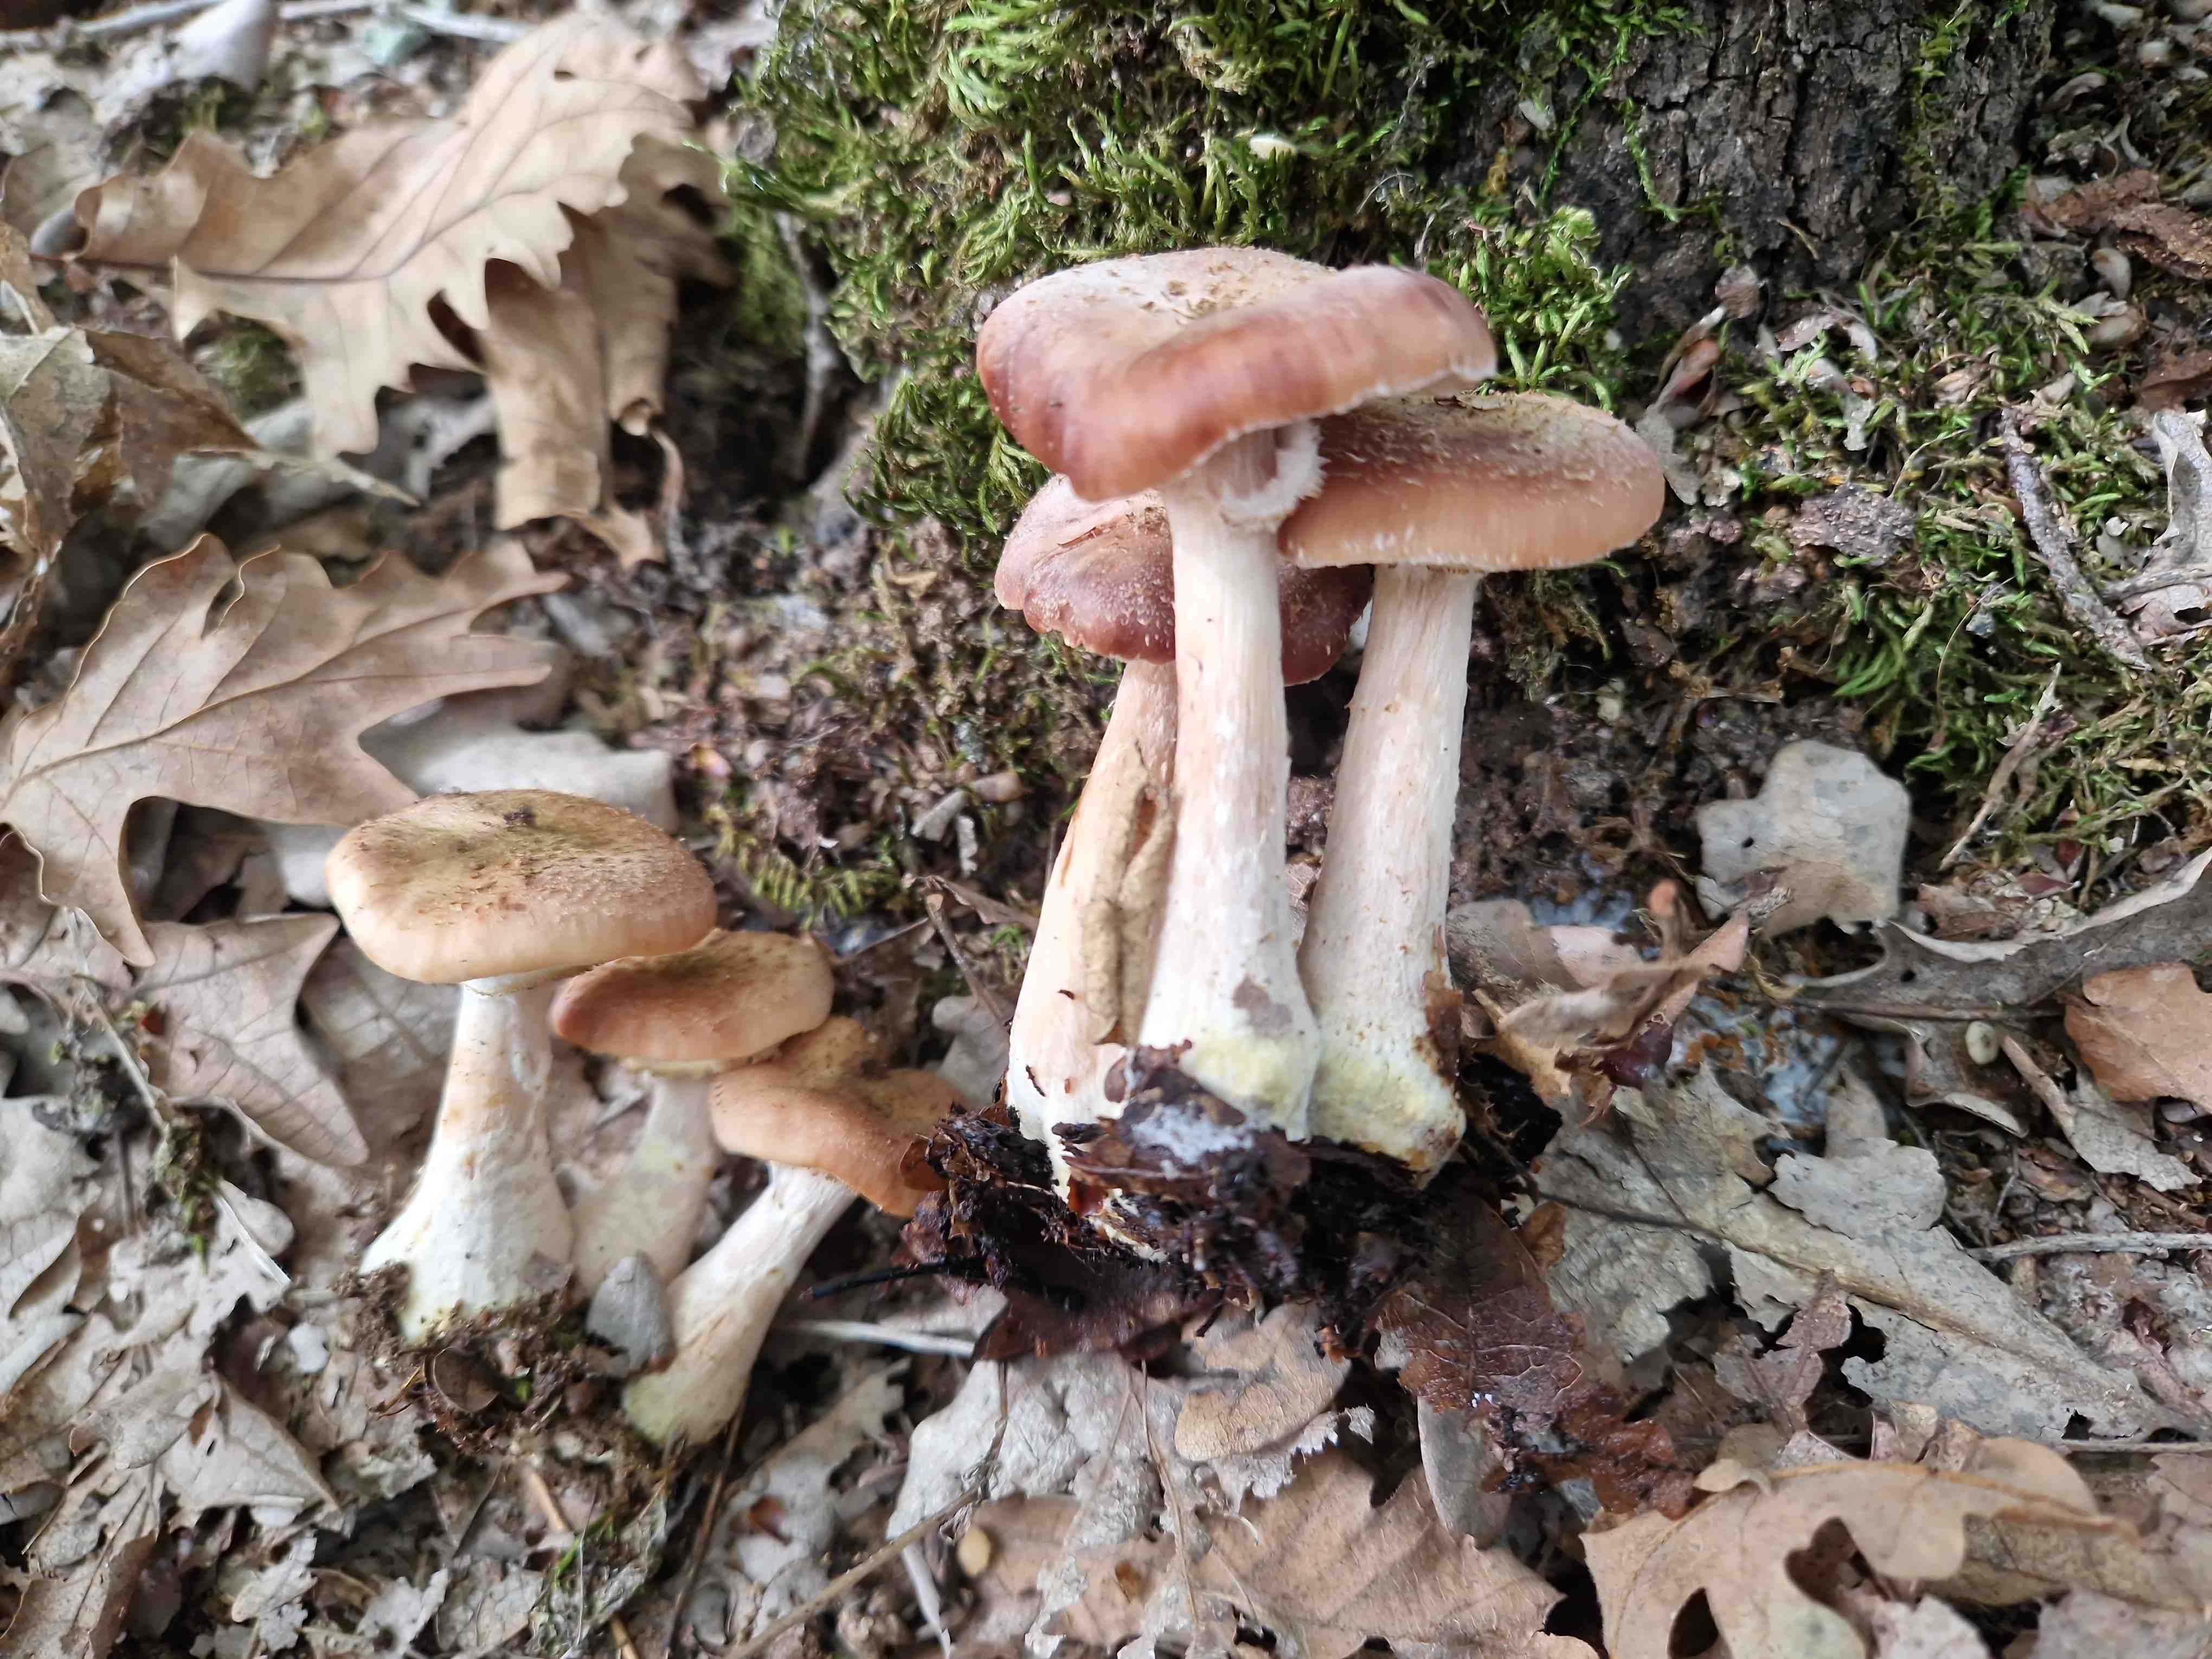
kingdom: Fungi
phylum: Basidiomycota
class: Agaricomycetes
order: Agaricales
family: Physalacriaceae
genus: Armillaria
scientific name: Armillaria lutea
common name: køllestokket honningsvamp
